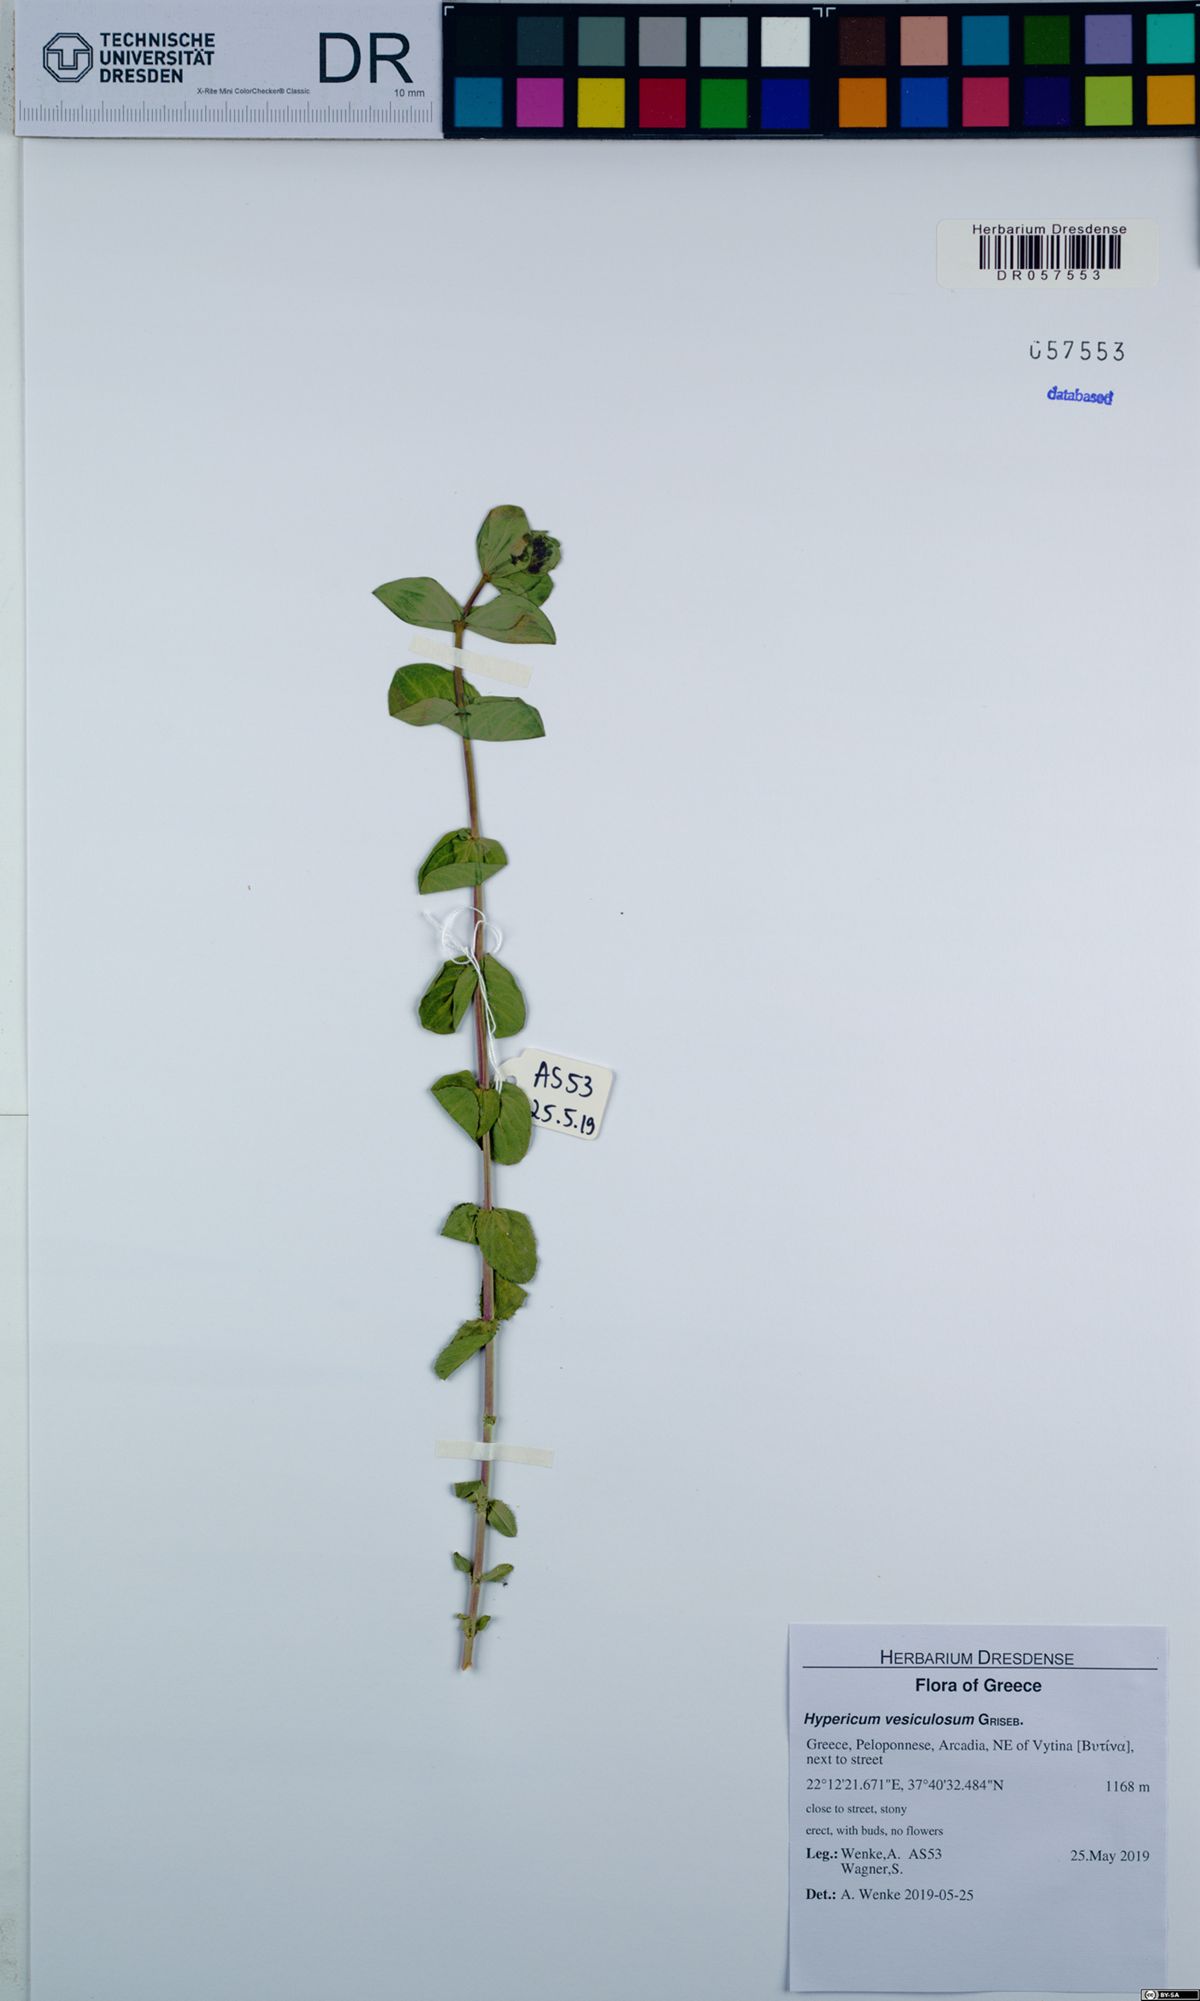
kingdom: Plantae
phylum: Tracheophyta
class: Magnoliopsida
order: Malpighiales
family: Hypericaceae
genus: Hypericum
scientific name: Hypericum vesiculosum
